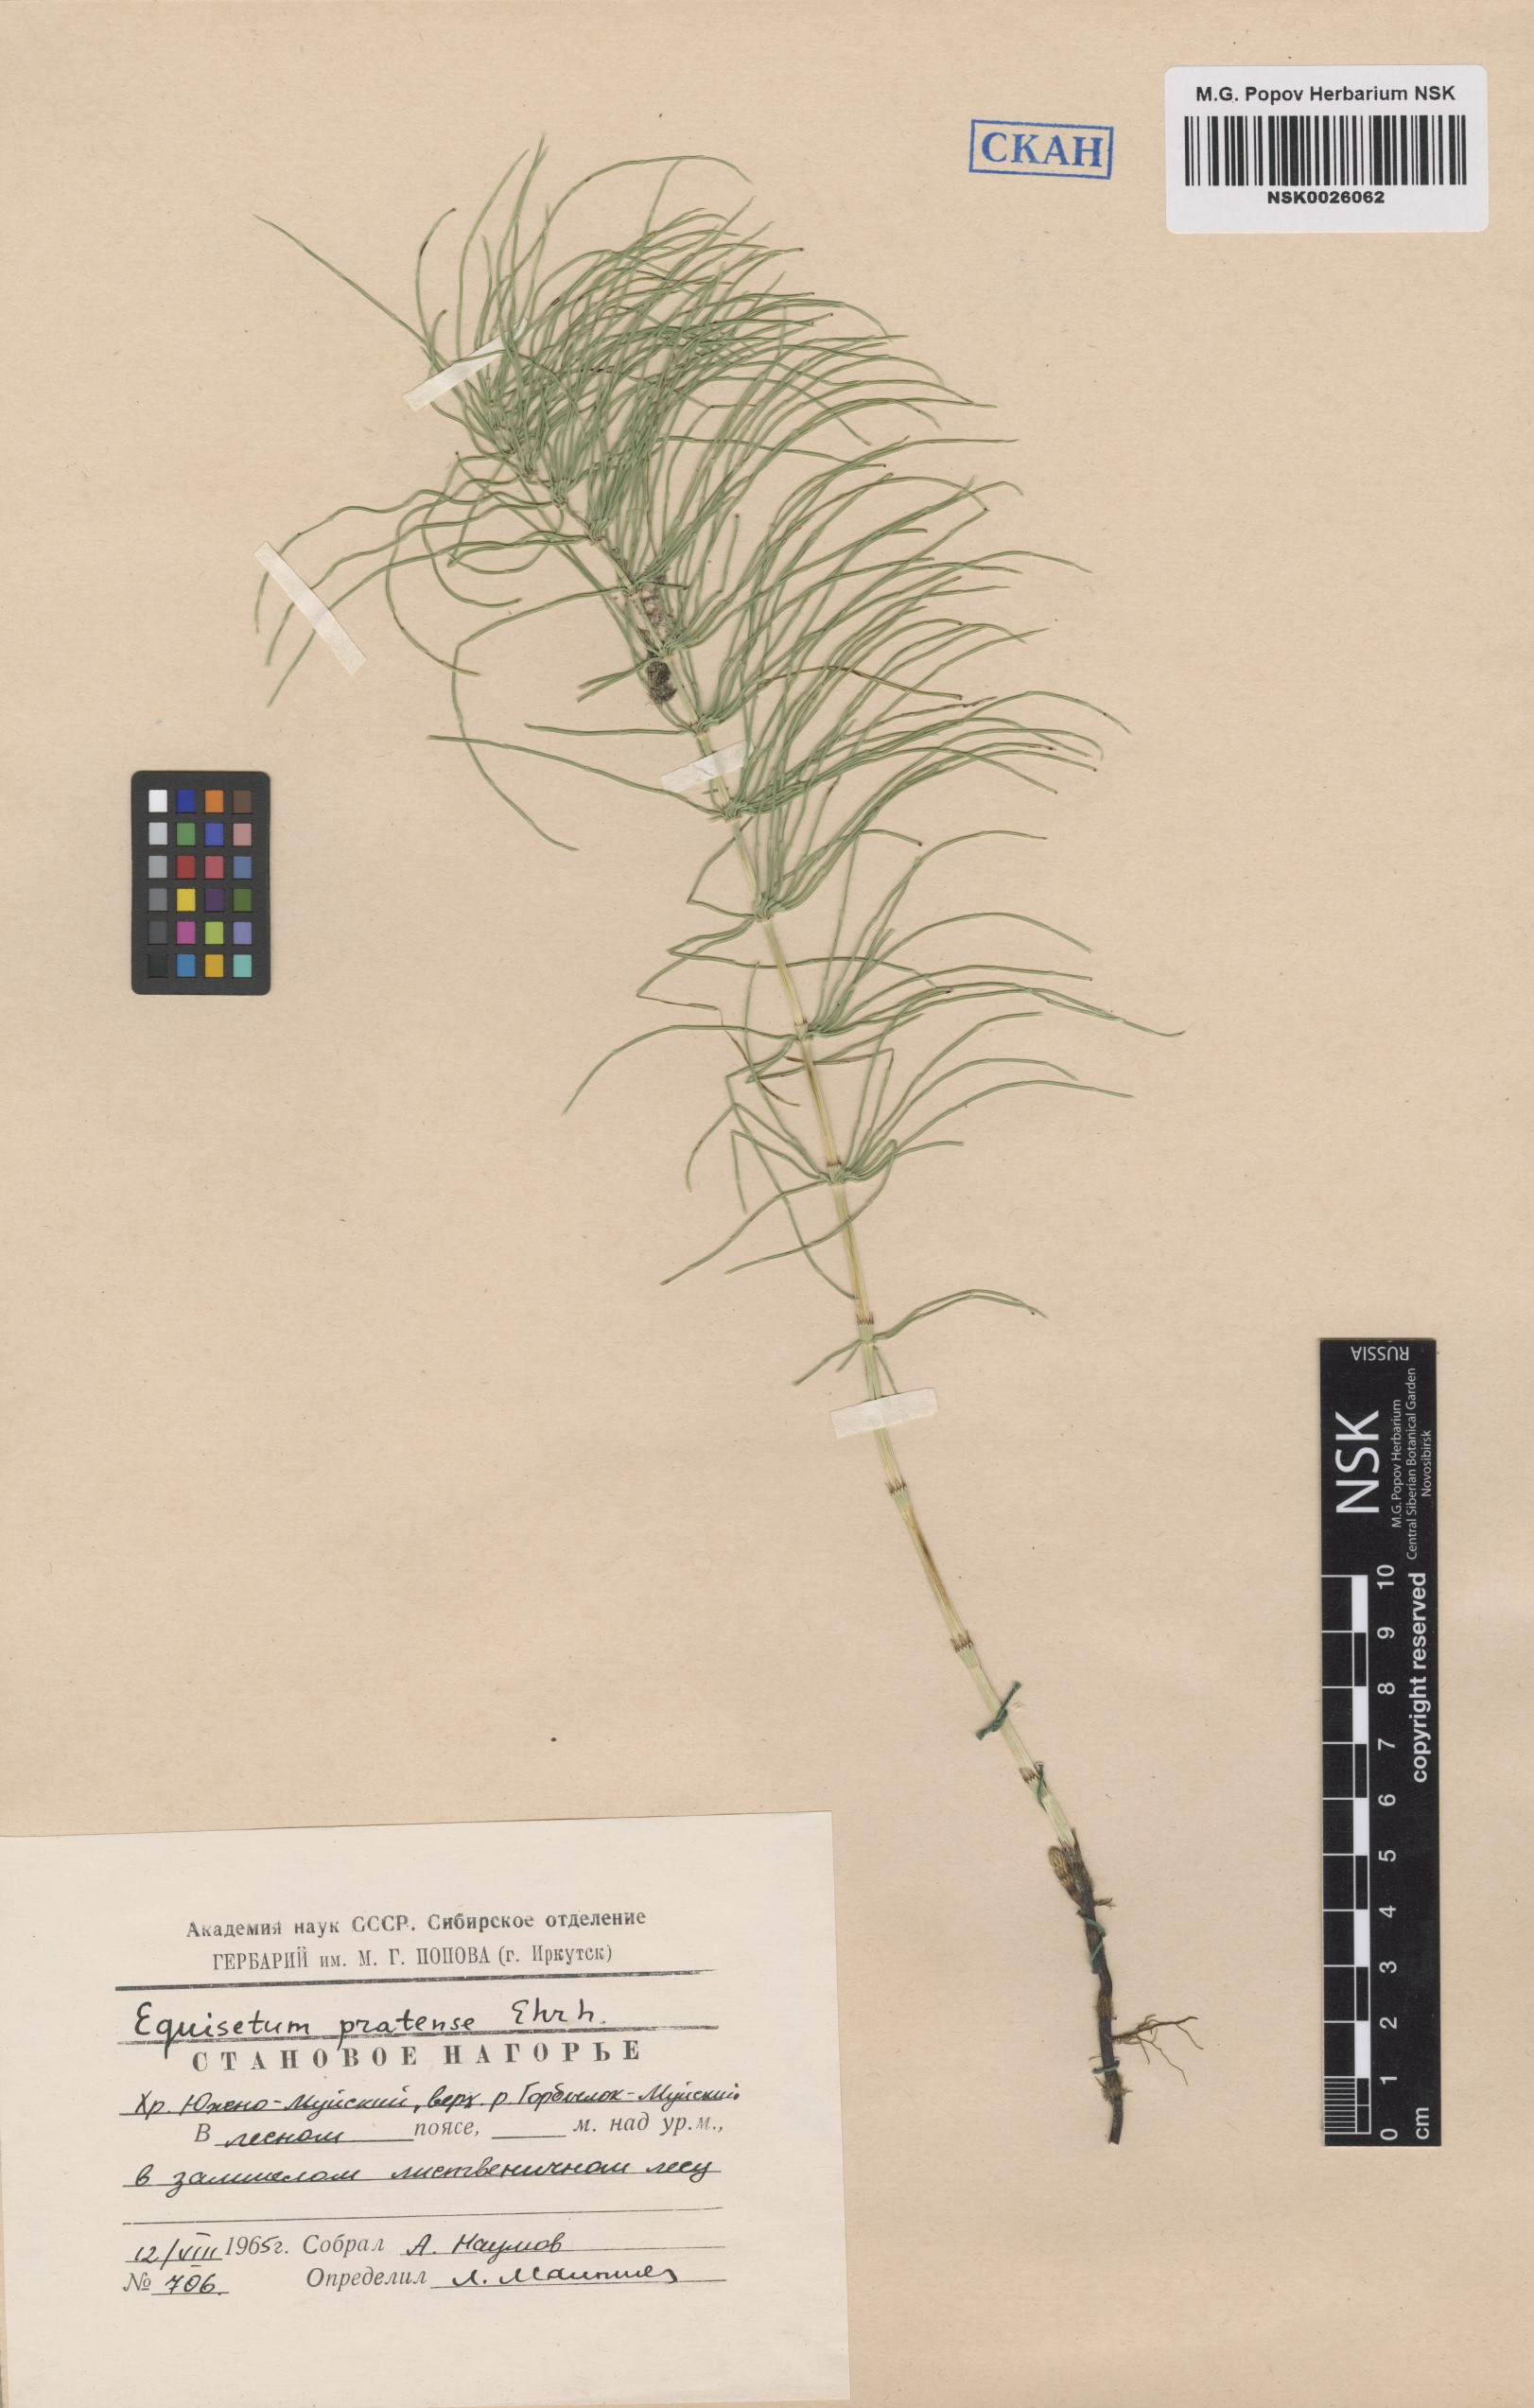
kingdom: Plantae
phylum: Tracheophyta
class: Polypodiopsida
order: Equisetales
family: Equisetaceae
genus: Equisetum
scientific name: Equisetum pratense
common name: Meadow horsetail
